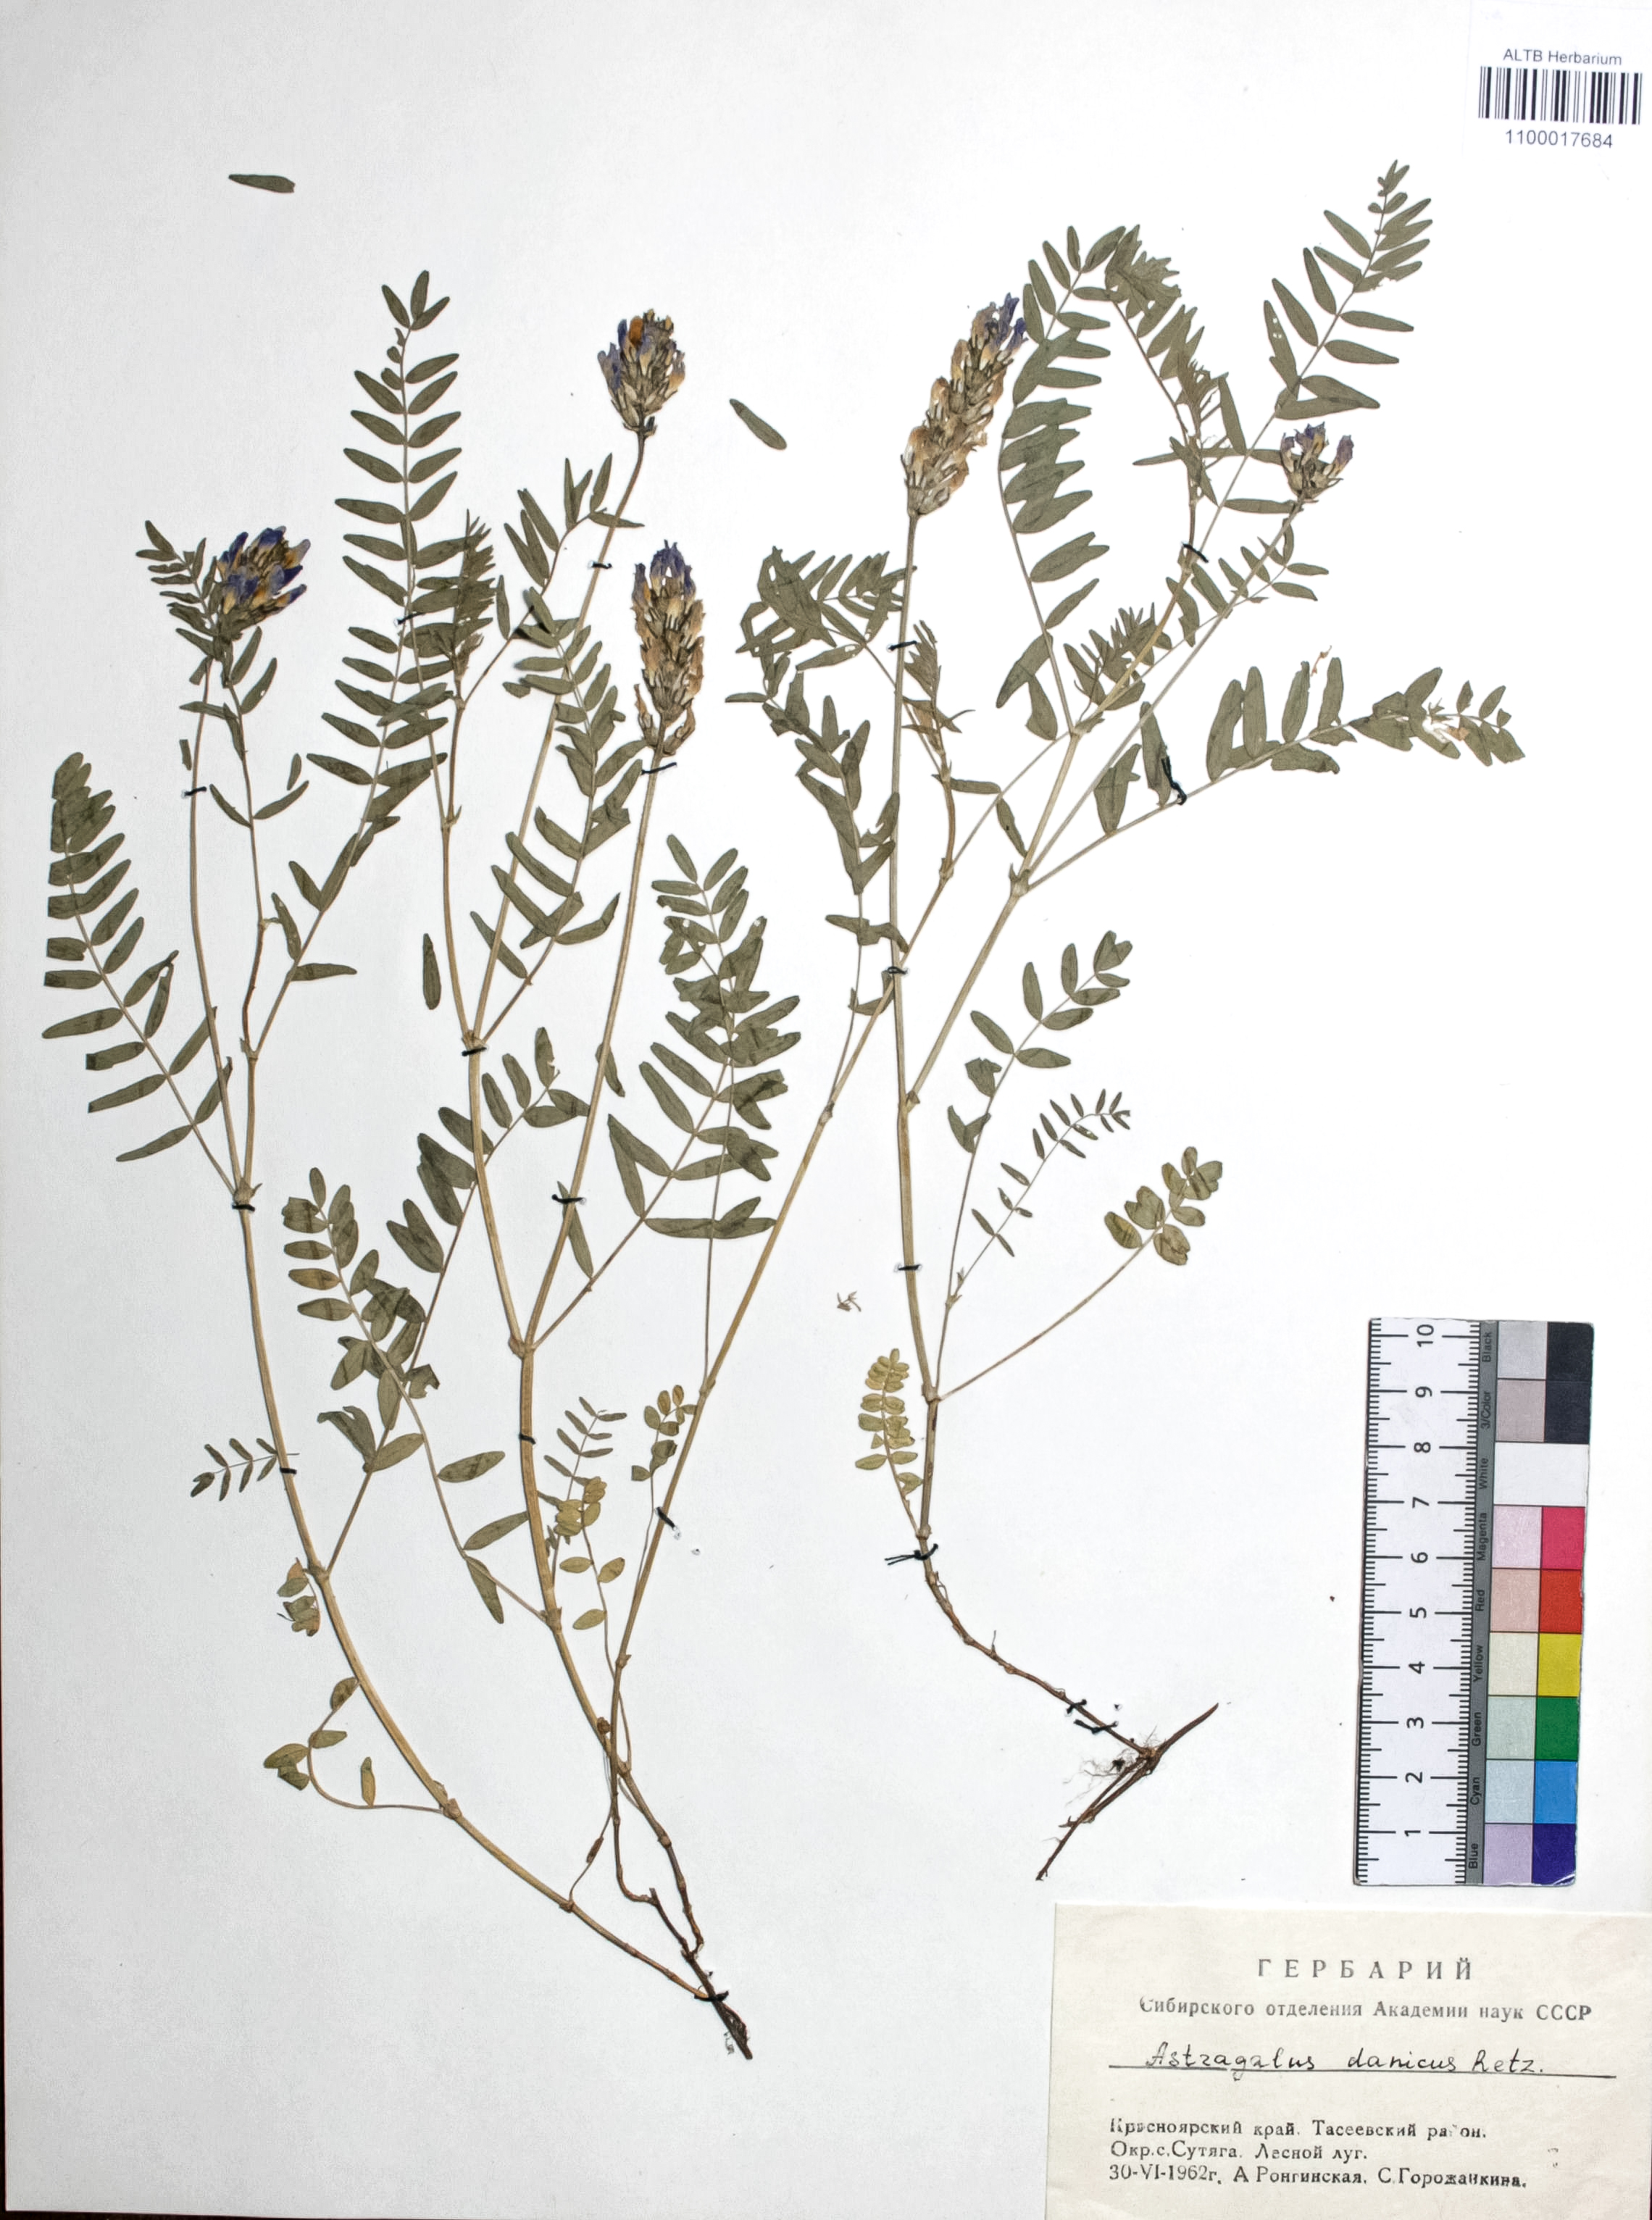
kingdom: Plantae
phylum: Tracheophyta
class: Magnoliopsida
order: Fabales
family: Fabaceae
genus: Astragalus
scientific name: Astragalus danicus
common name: Purple milk-vetch
